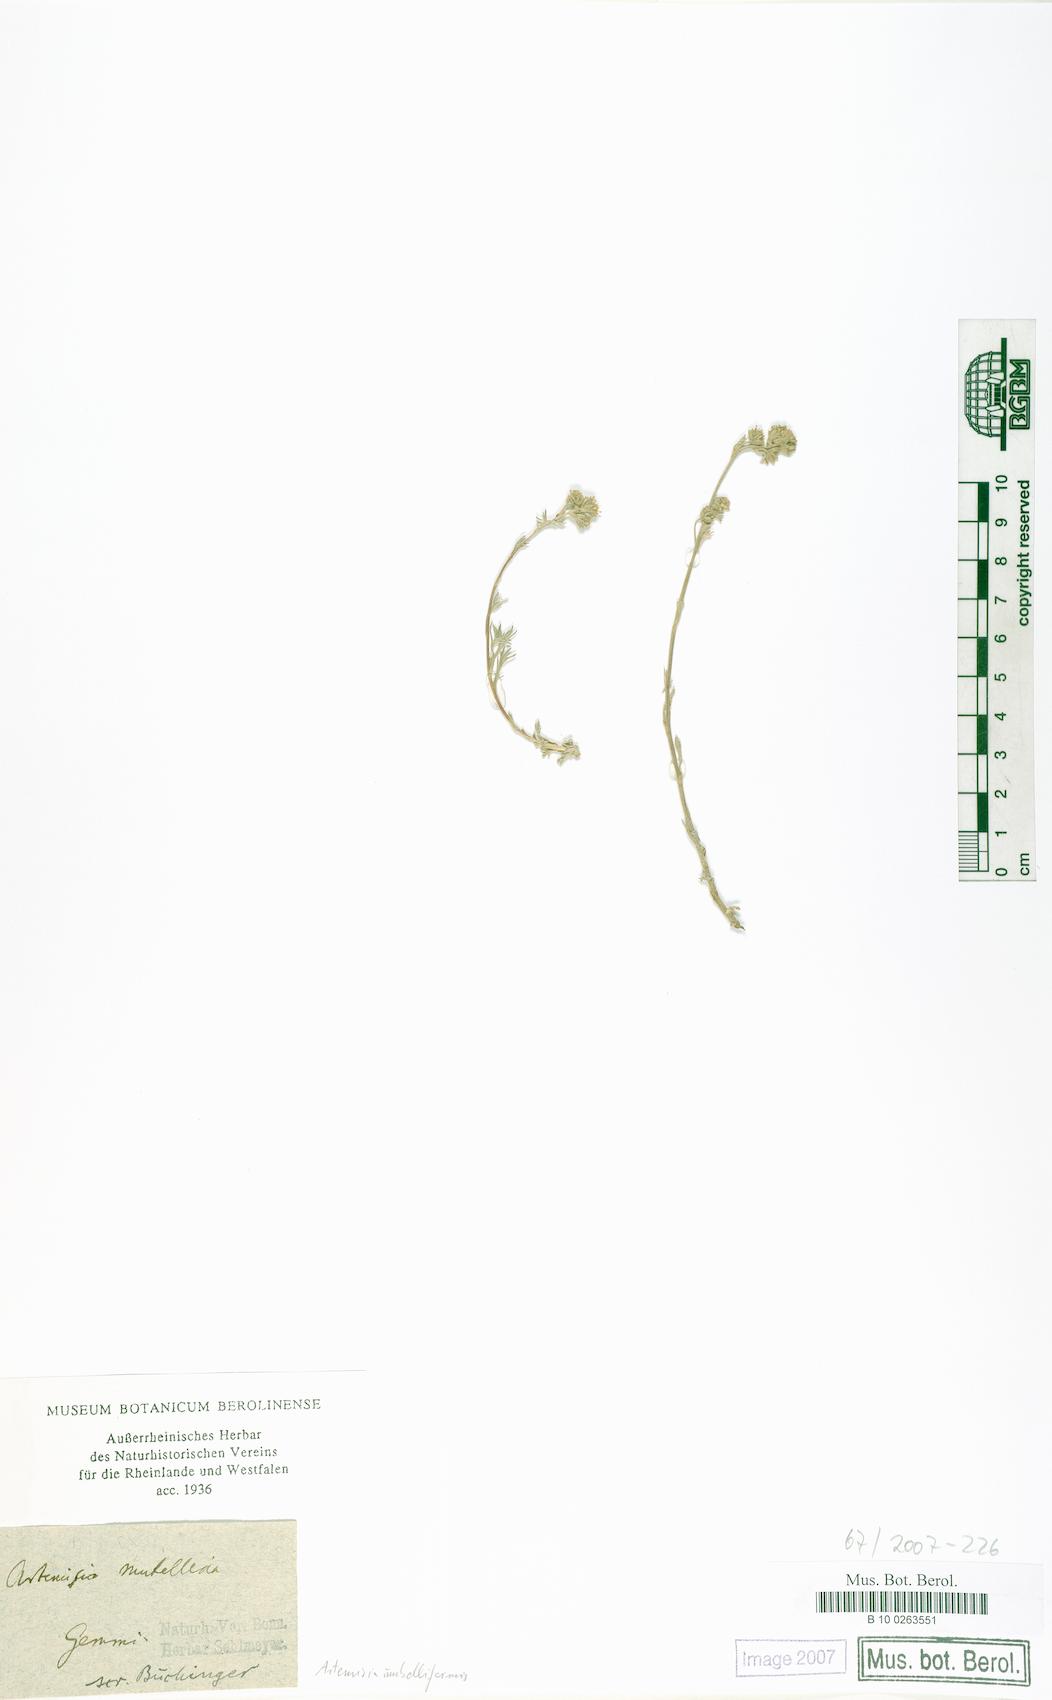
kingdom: Plantae
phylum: Tracheophyta
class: Magnoliopsida
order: Asterales
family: Asteraceae
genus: Artemisia
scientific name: Artemisia umbelliformis
